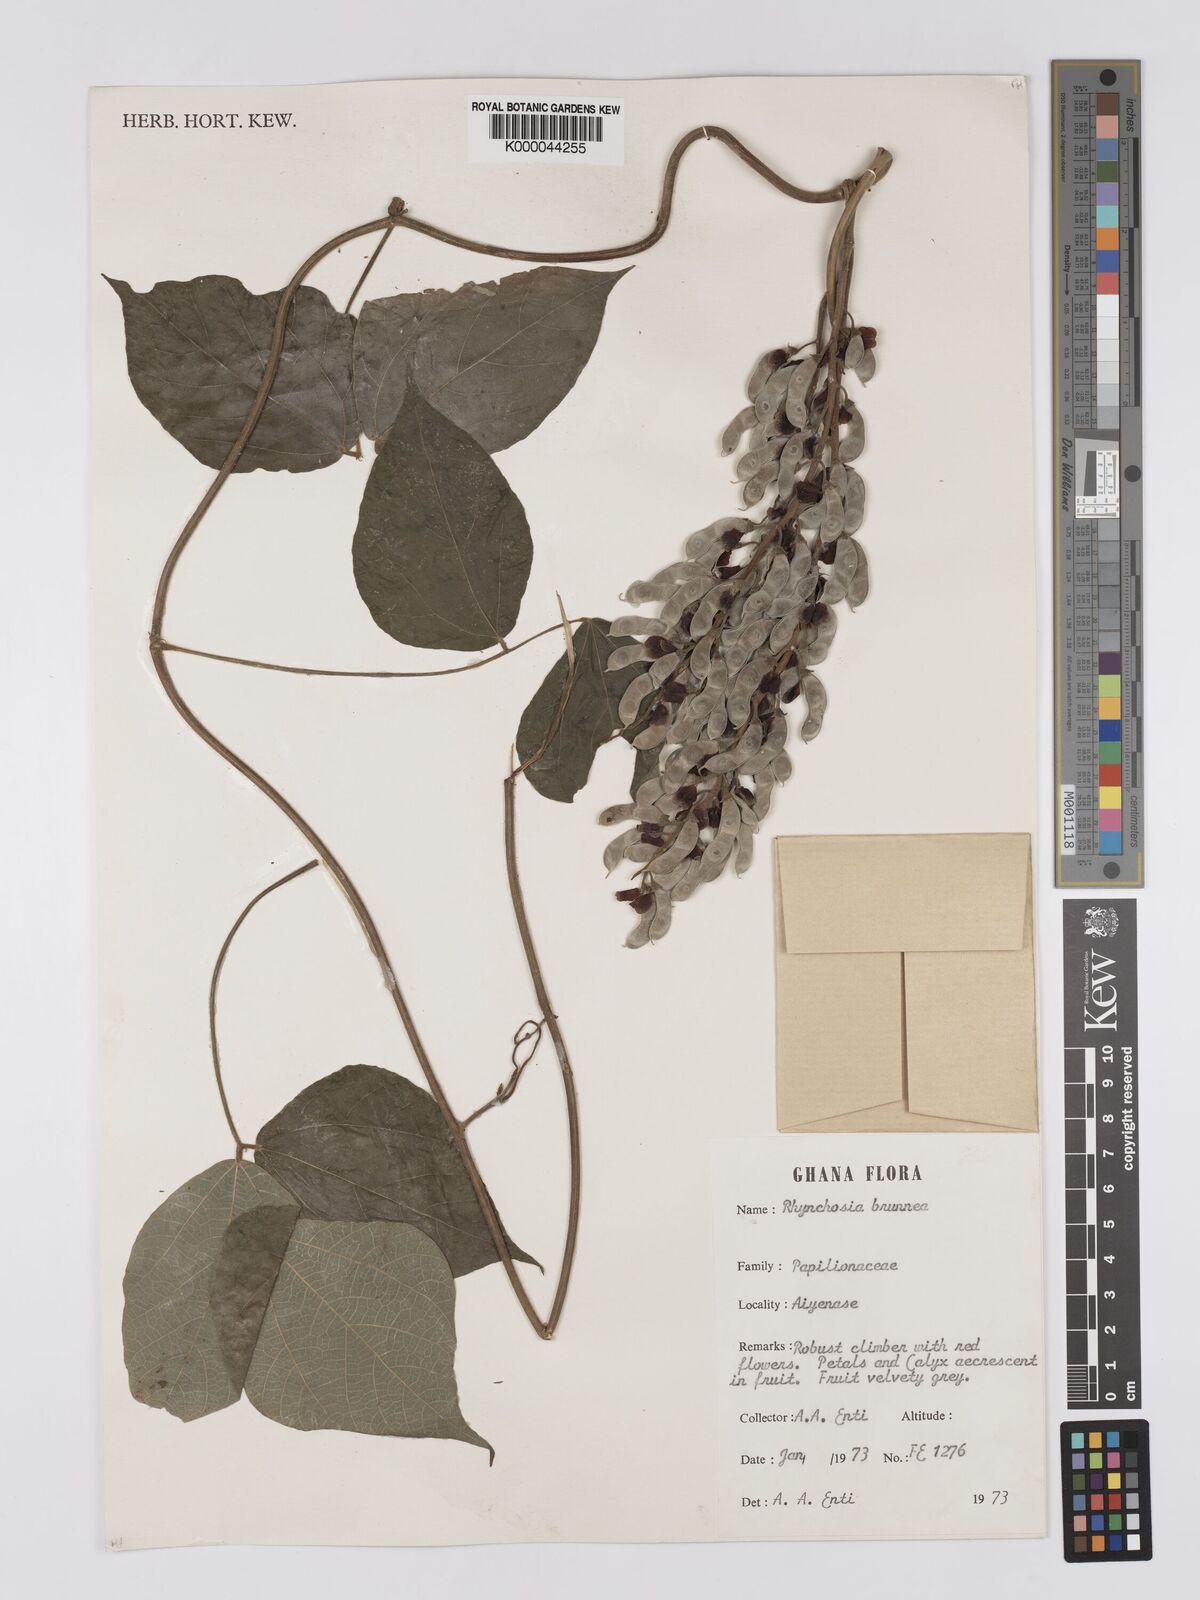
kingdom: Plantae
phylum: Tracheophyta
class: Magnoliopsida
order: Fabales
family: Fabaceae
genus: Rhynchosia
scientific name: Rhynchosia brunnea
